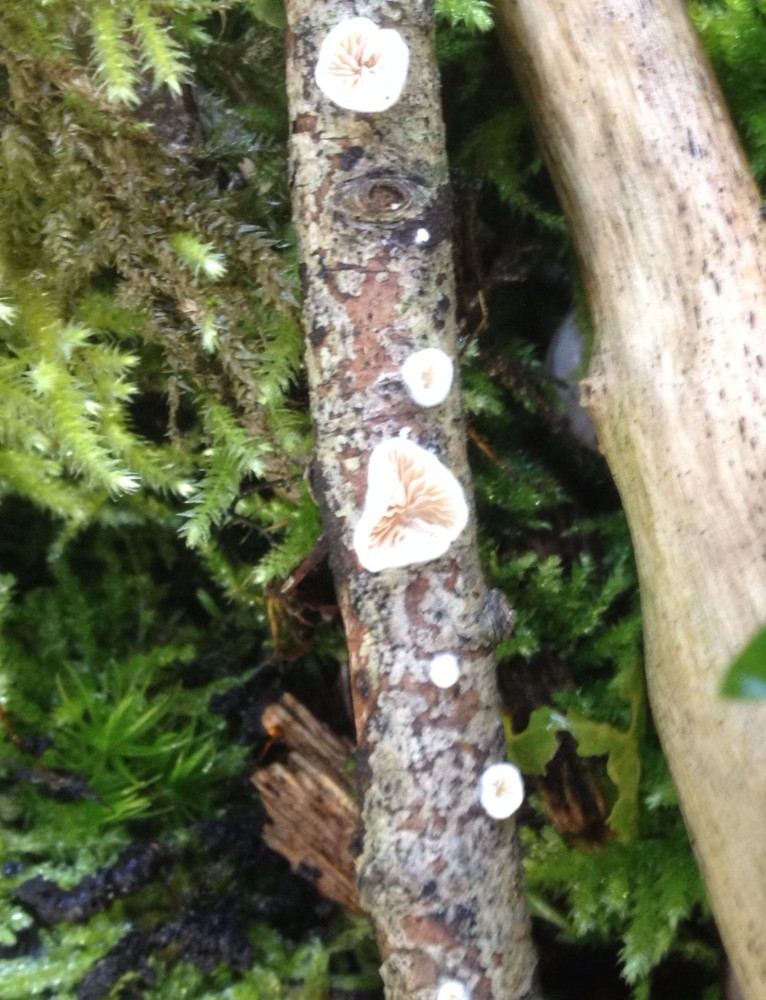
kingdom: Fungi
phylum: Basidiomycota
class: Agaricomycetes
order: Agaricales
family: Crepidotaceae
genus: Crepidotus
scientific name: Crepidotus
